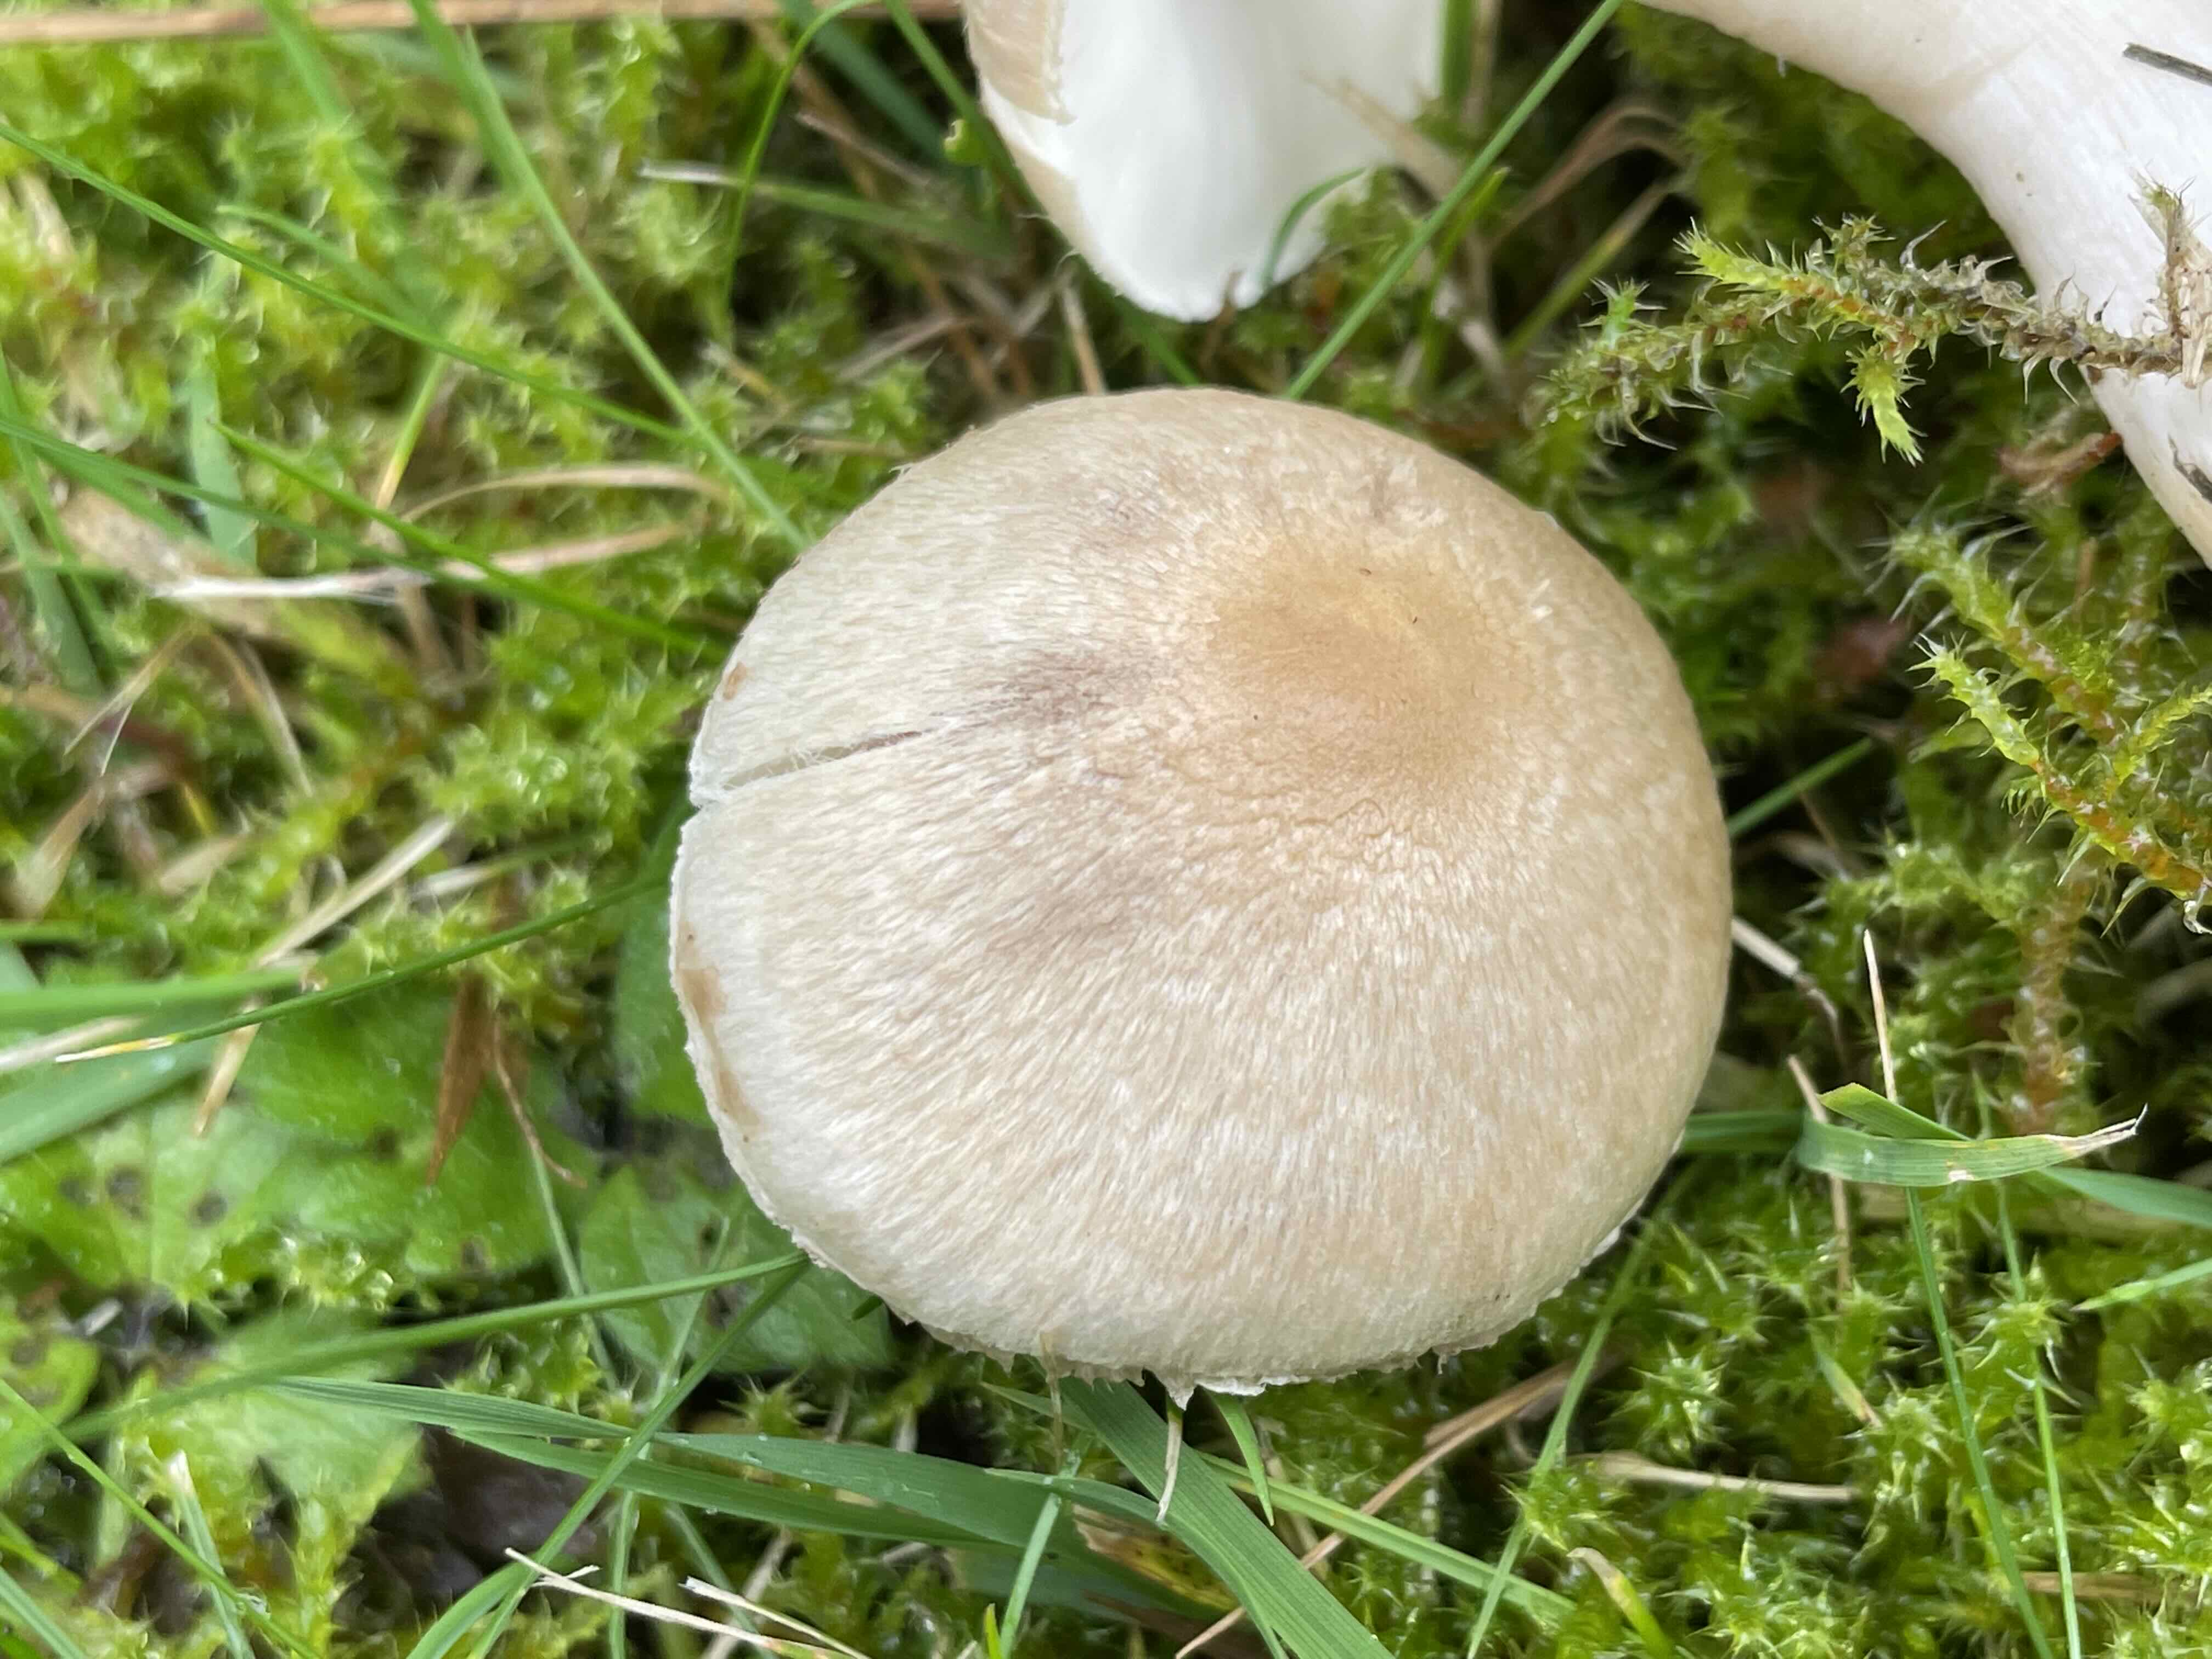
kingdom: Fungi
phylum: Basidiomycota
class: Agaricomycetes
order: Agaricales
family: Inocybaceae
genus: Inocybe
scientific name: Inocybe sindonia
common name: bleg trævlhat
